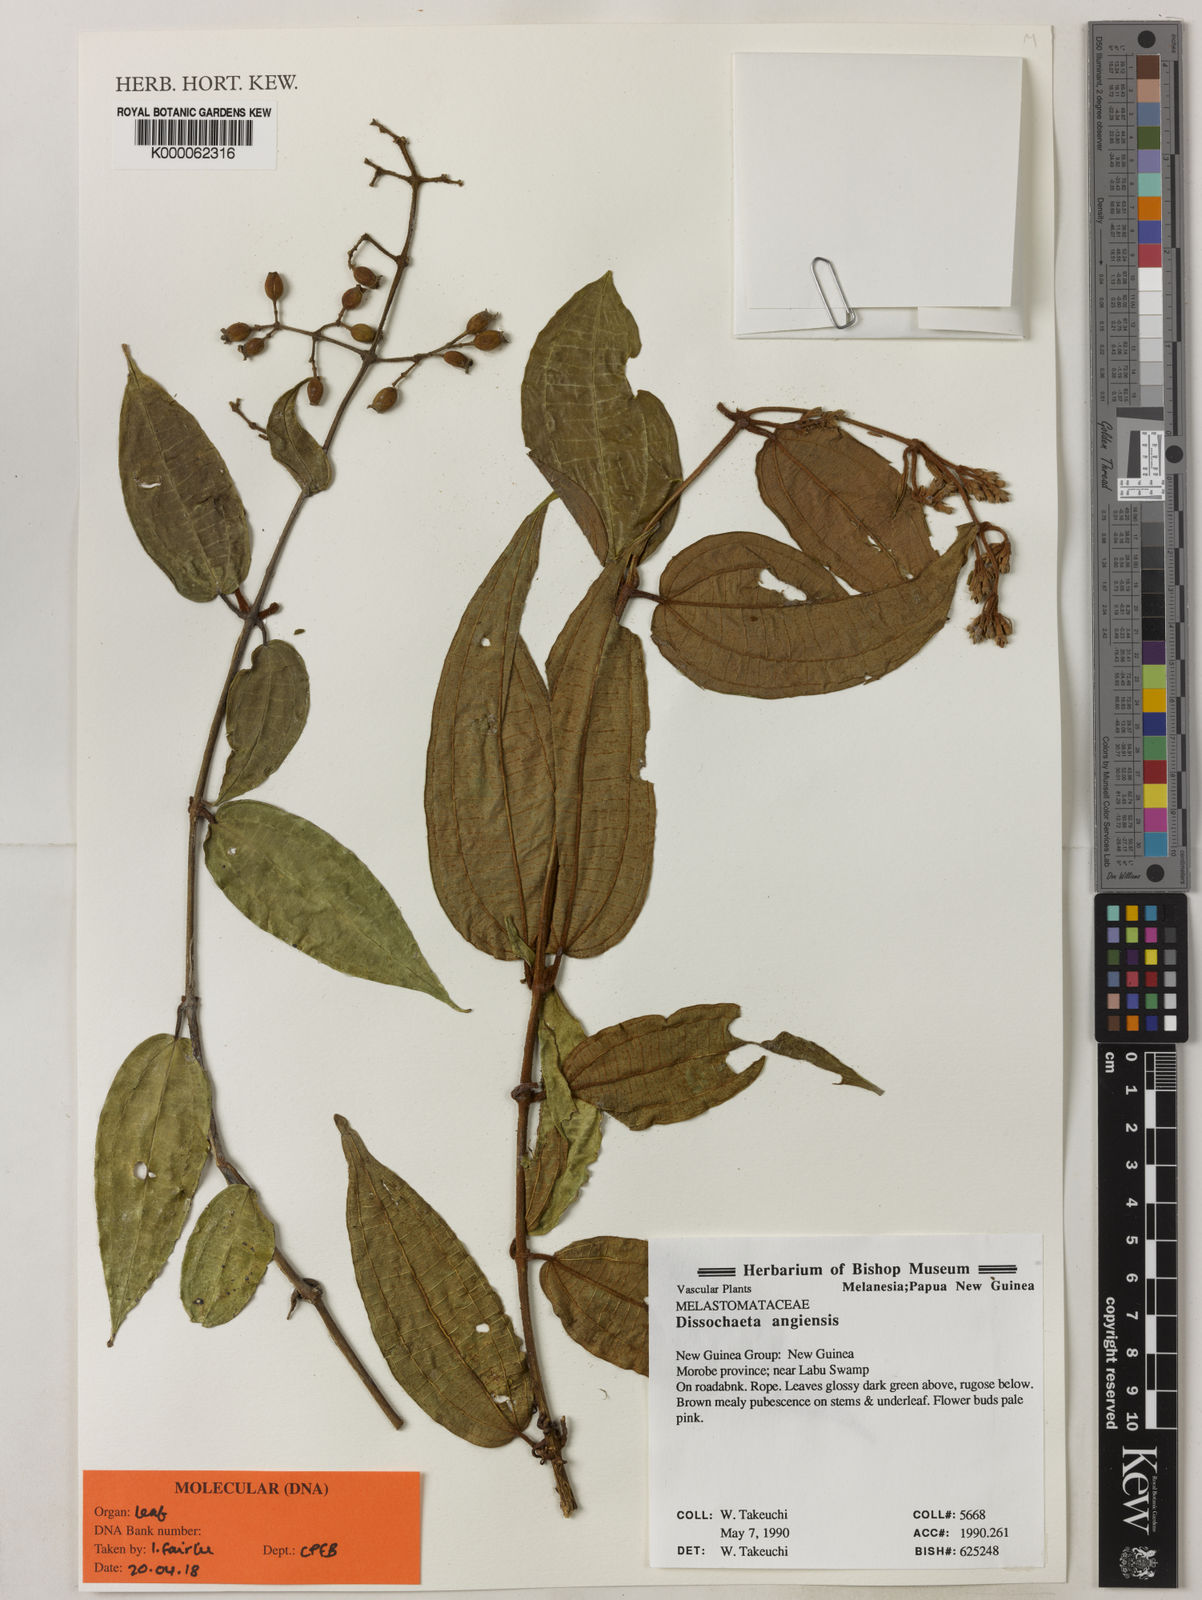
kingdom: Plantae
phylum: Tracheophyta
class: Magnoliopsida
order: Myrtales
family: Melastomataceae
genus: Dissochaeta
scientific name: Dissochaeta
